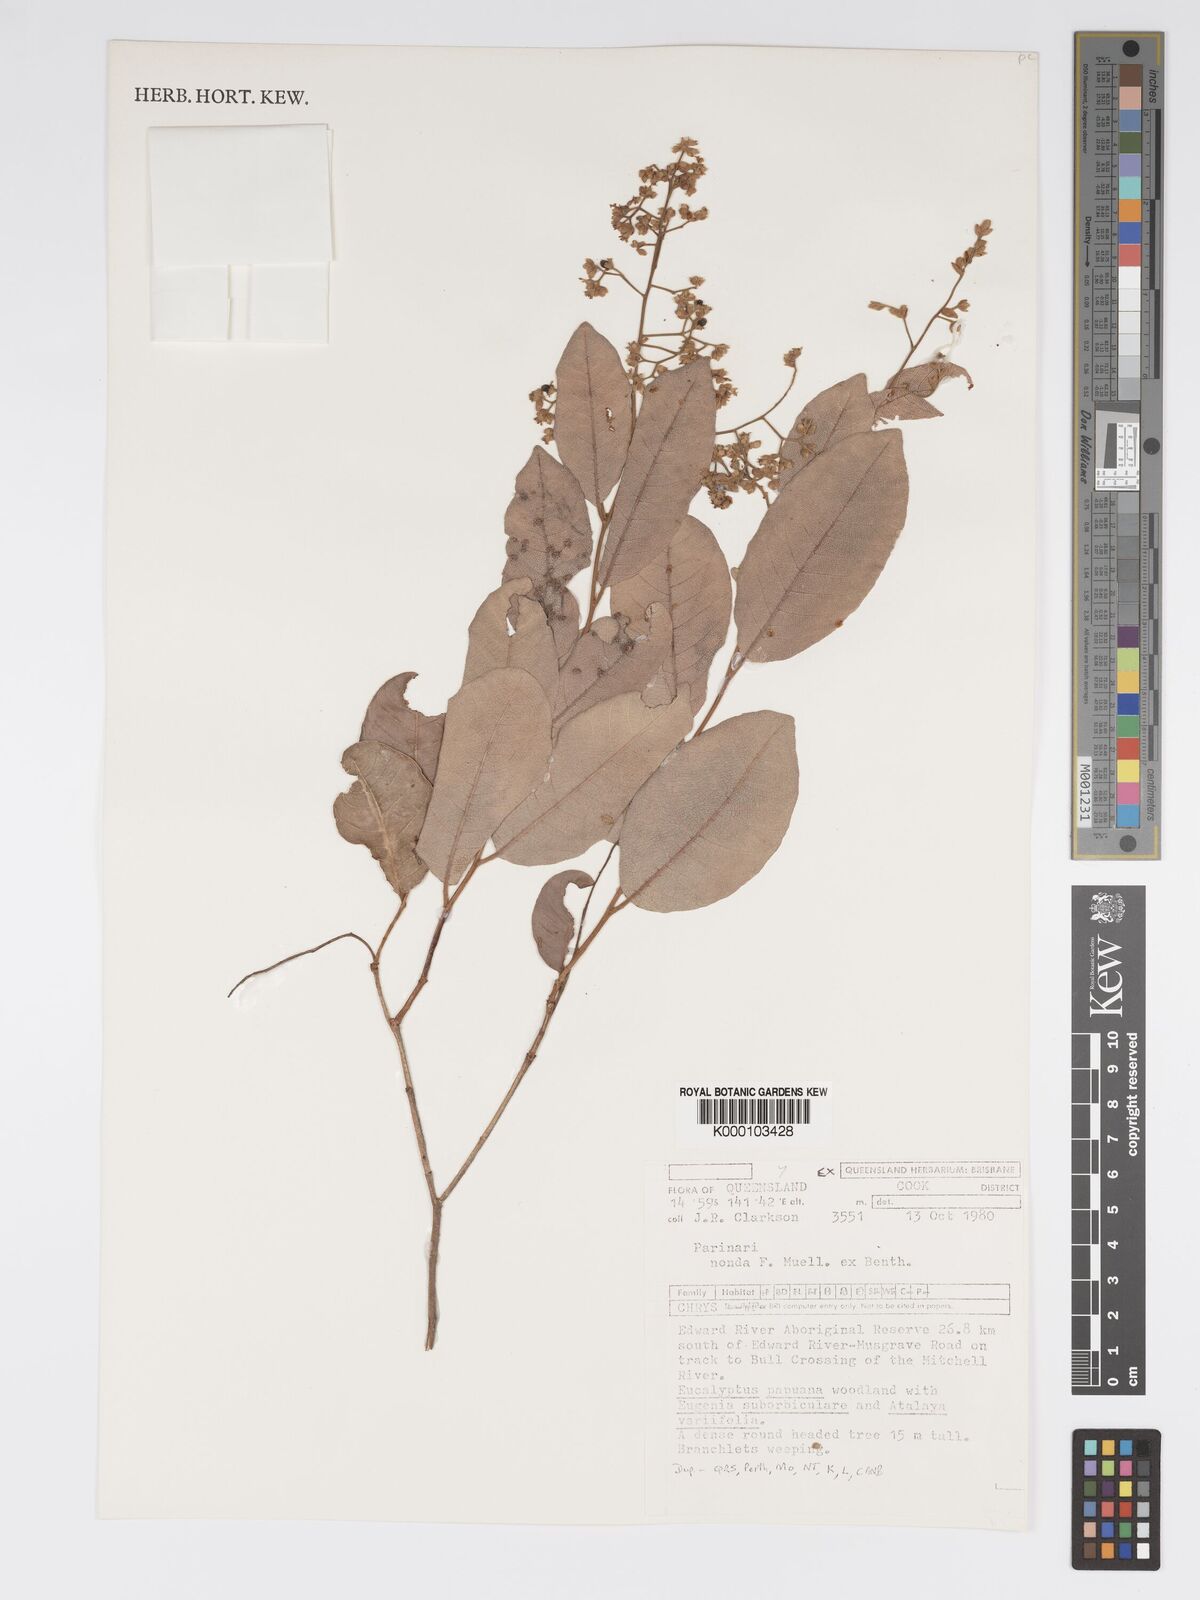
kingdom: Plantae
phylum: Tracheophyta
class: Magnoliopsida
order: Malpighiales
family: Chrysobalanaceae
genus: Parinari
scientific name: Parinari nonda
